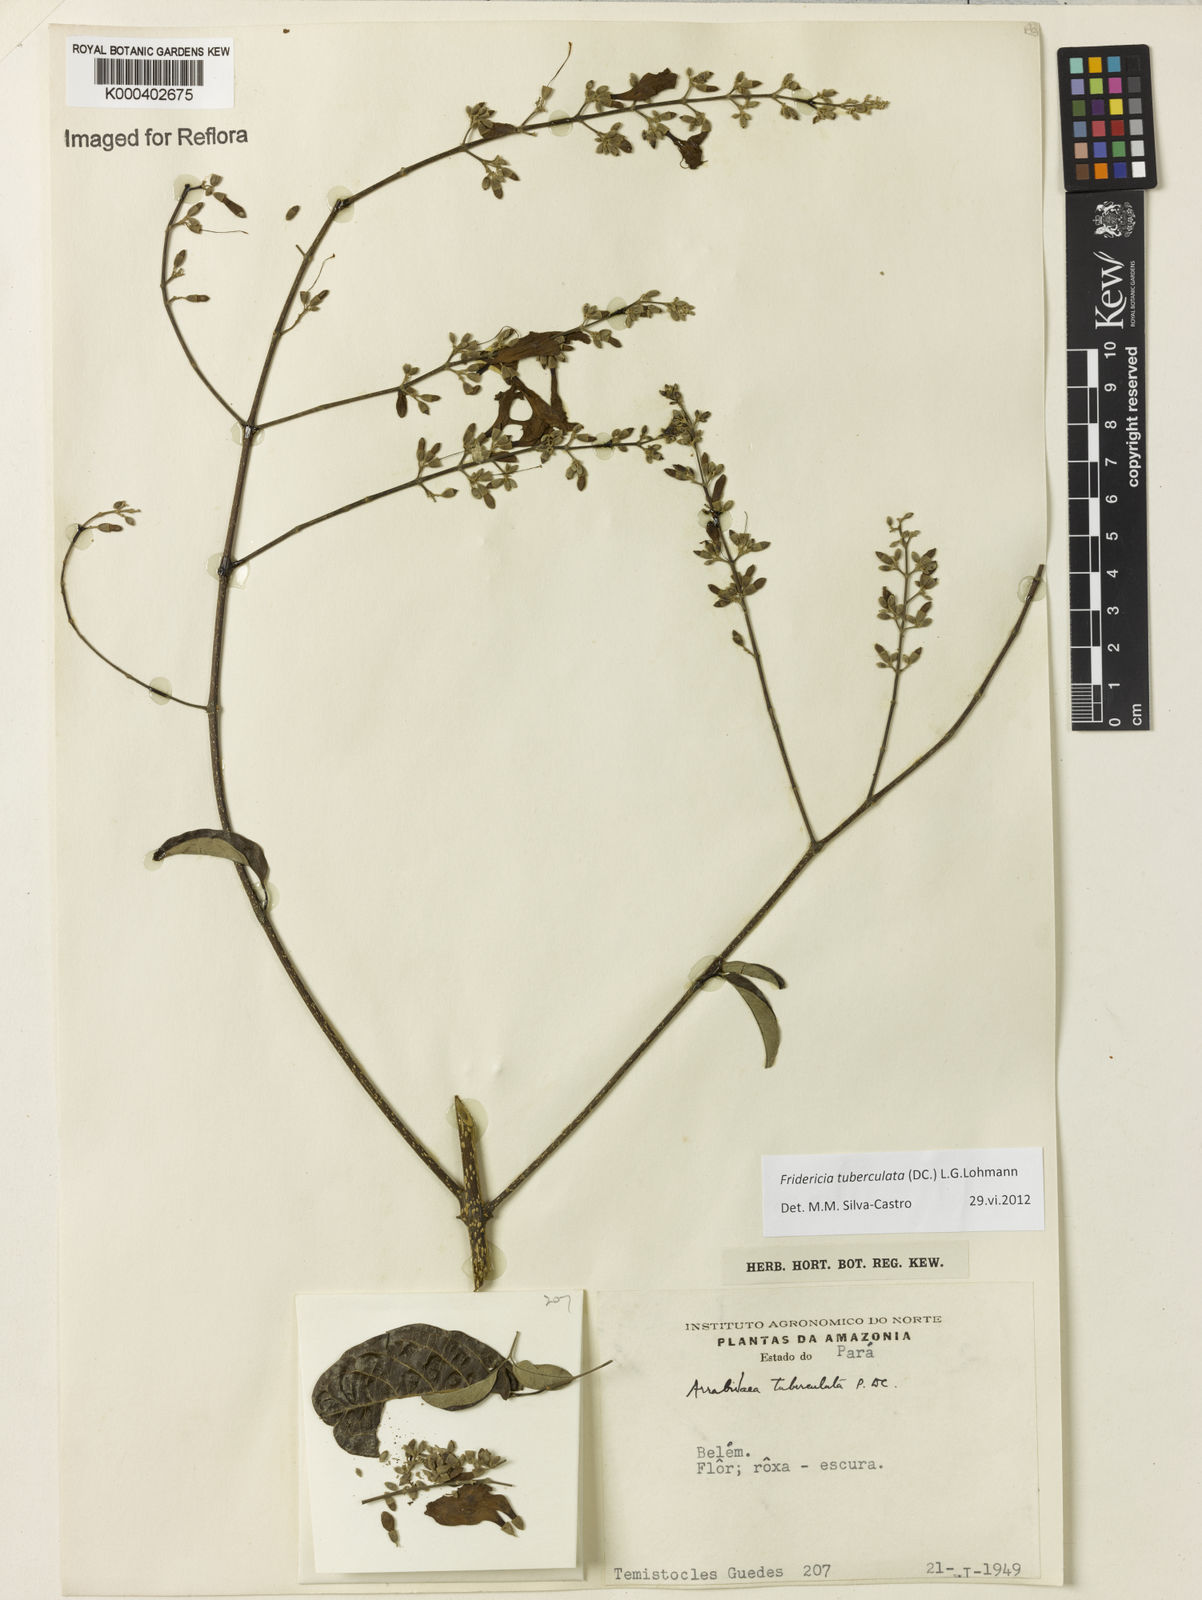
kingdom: Plantae
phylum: Tracheophyta
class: Magnoliopsida
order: Lamiales
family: Bignoniaceae
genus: Fridericia
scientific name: Fridericia tuberculata
